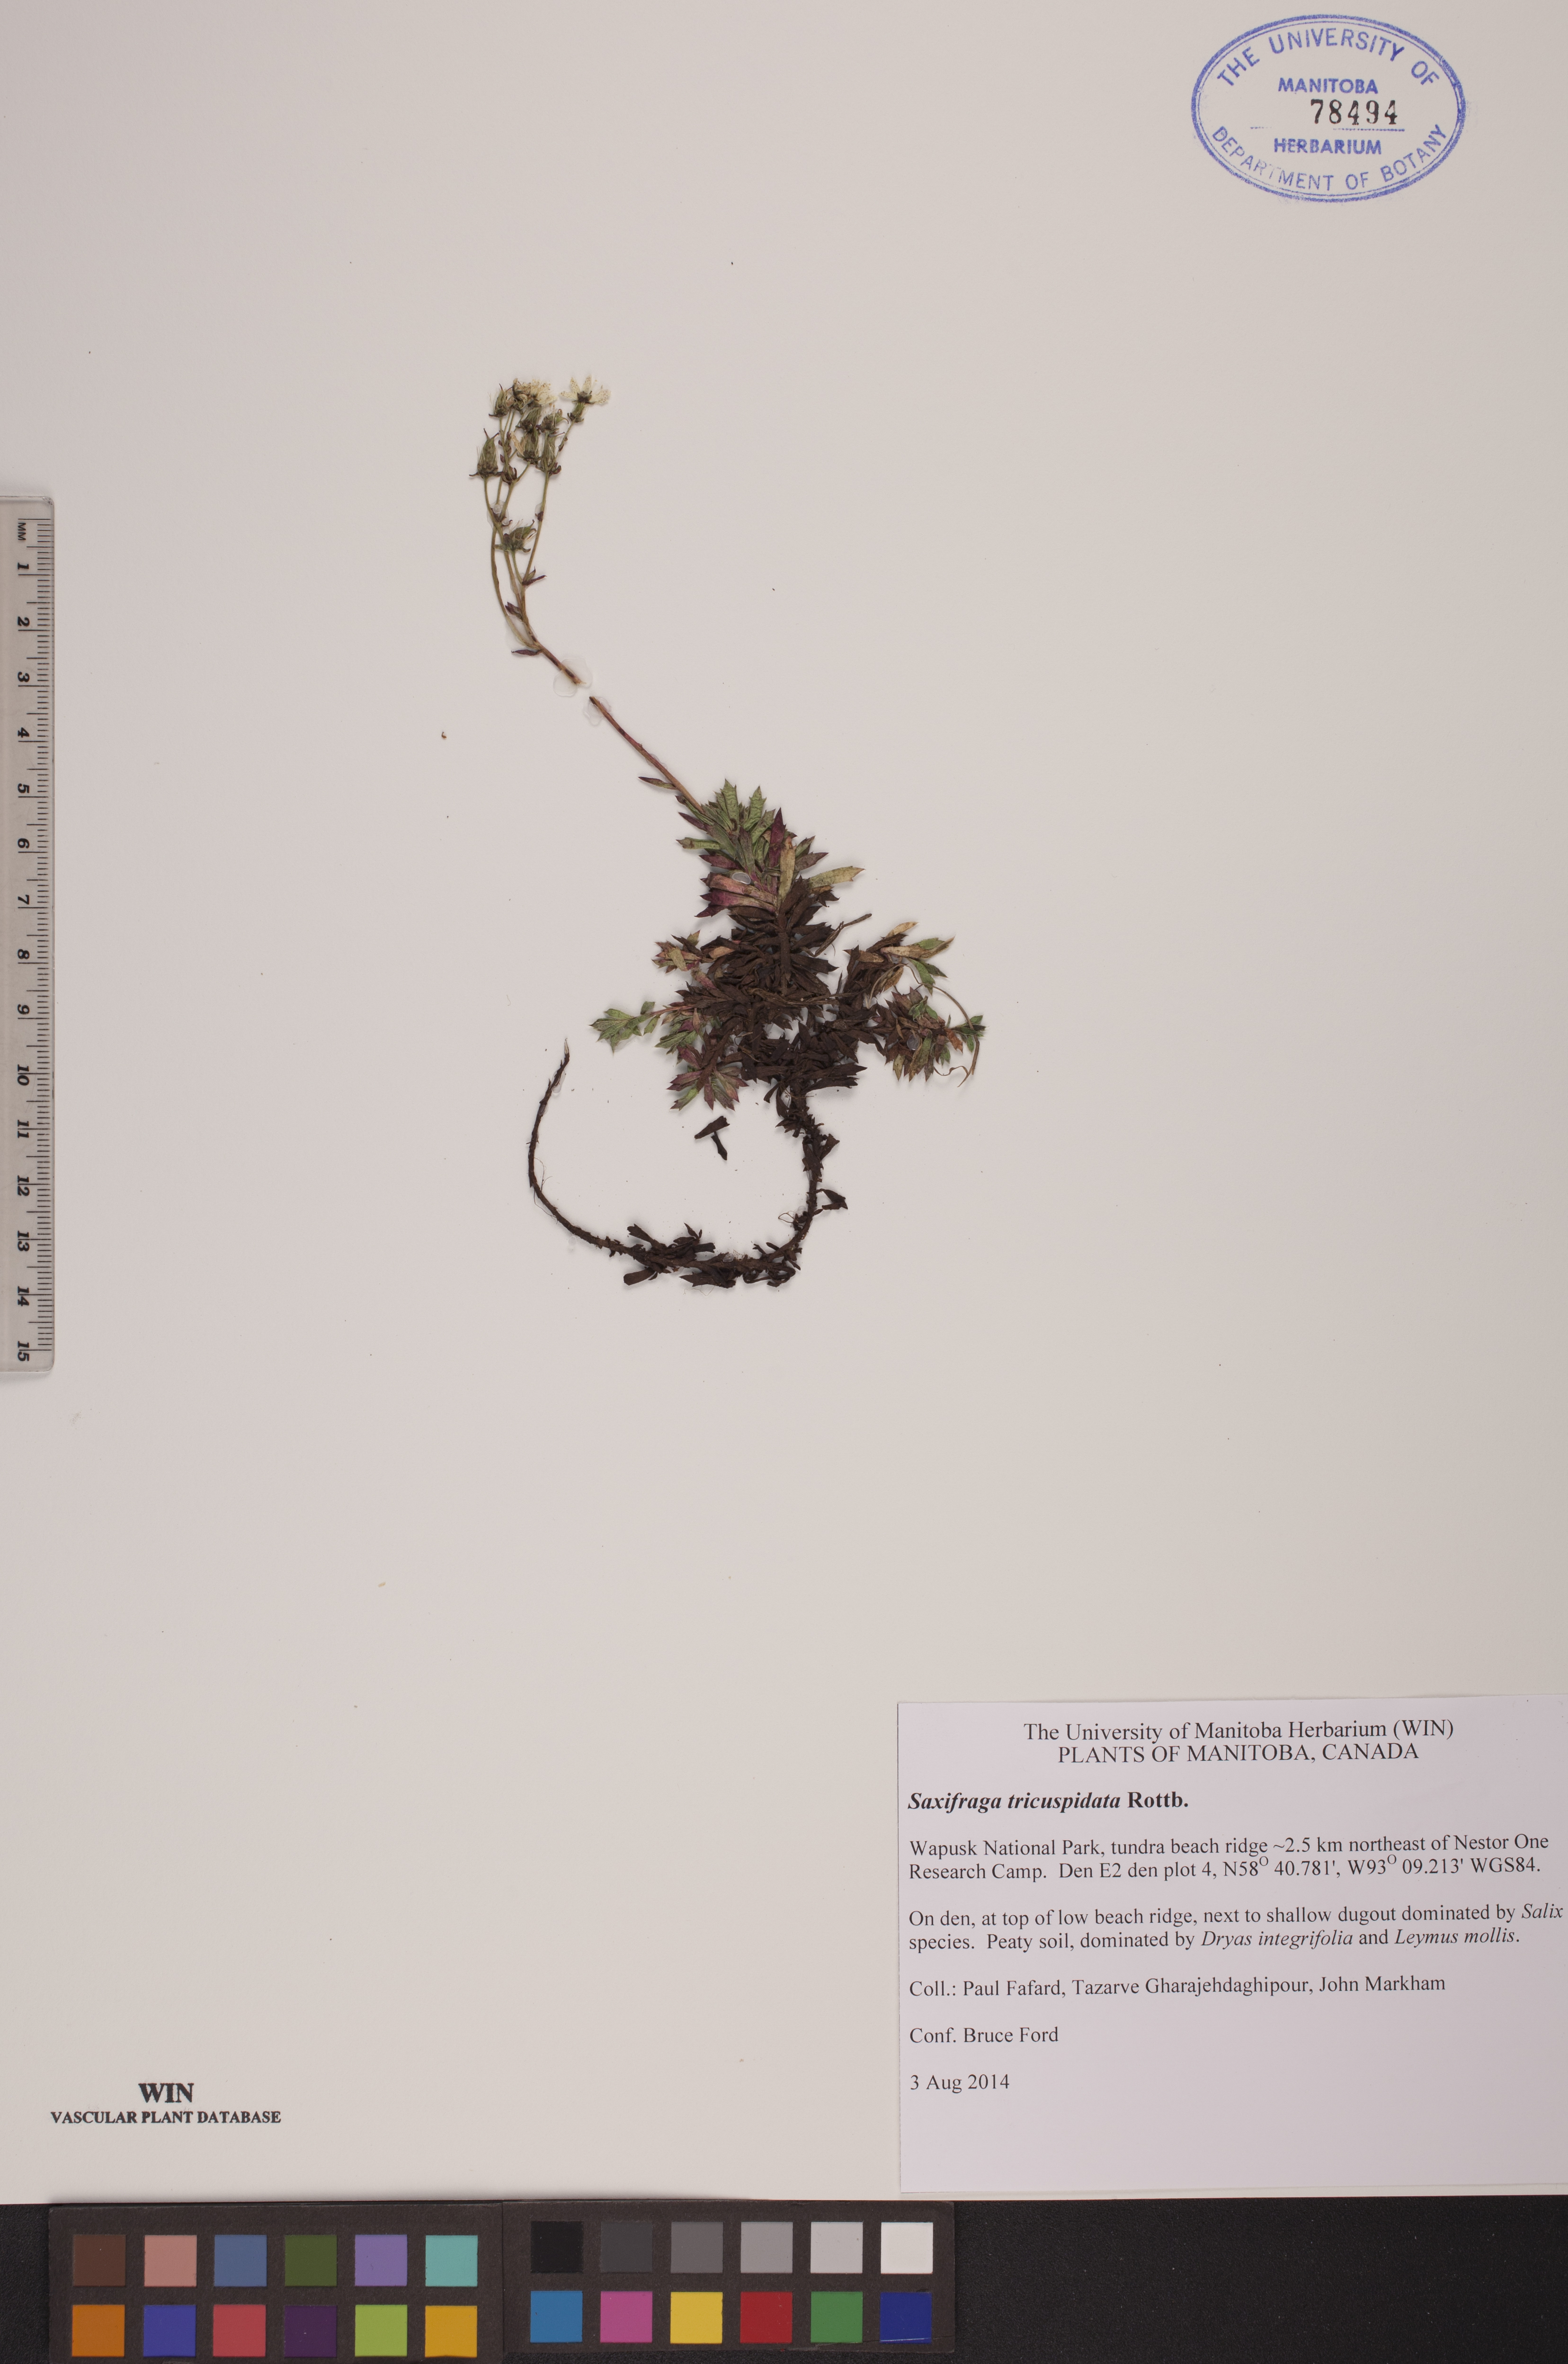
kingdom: Plantae
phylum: Tracheophyta
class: Magnoliopsida
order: Saxifragales
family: Saxifragaceae
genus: Saxifraga
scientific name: Saxifraga tricuspidata
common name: Prickly saxifrage
